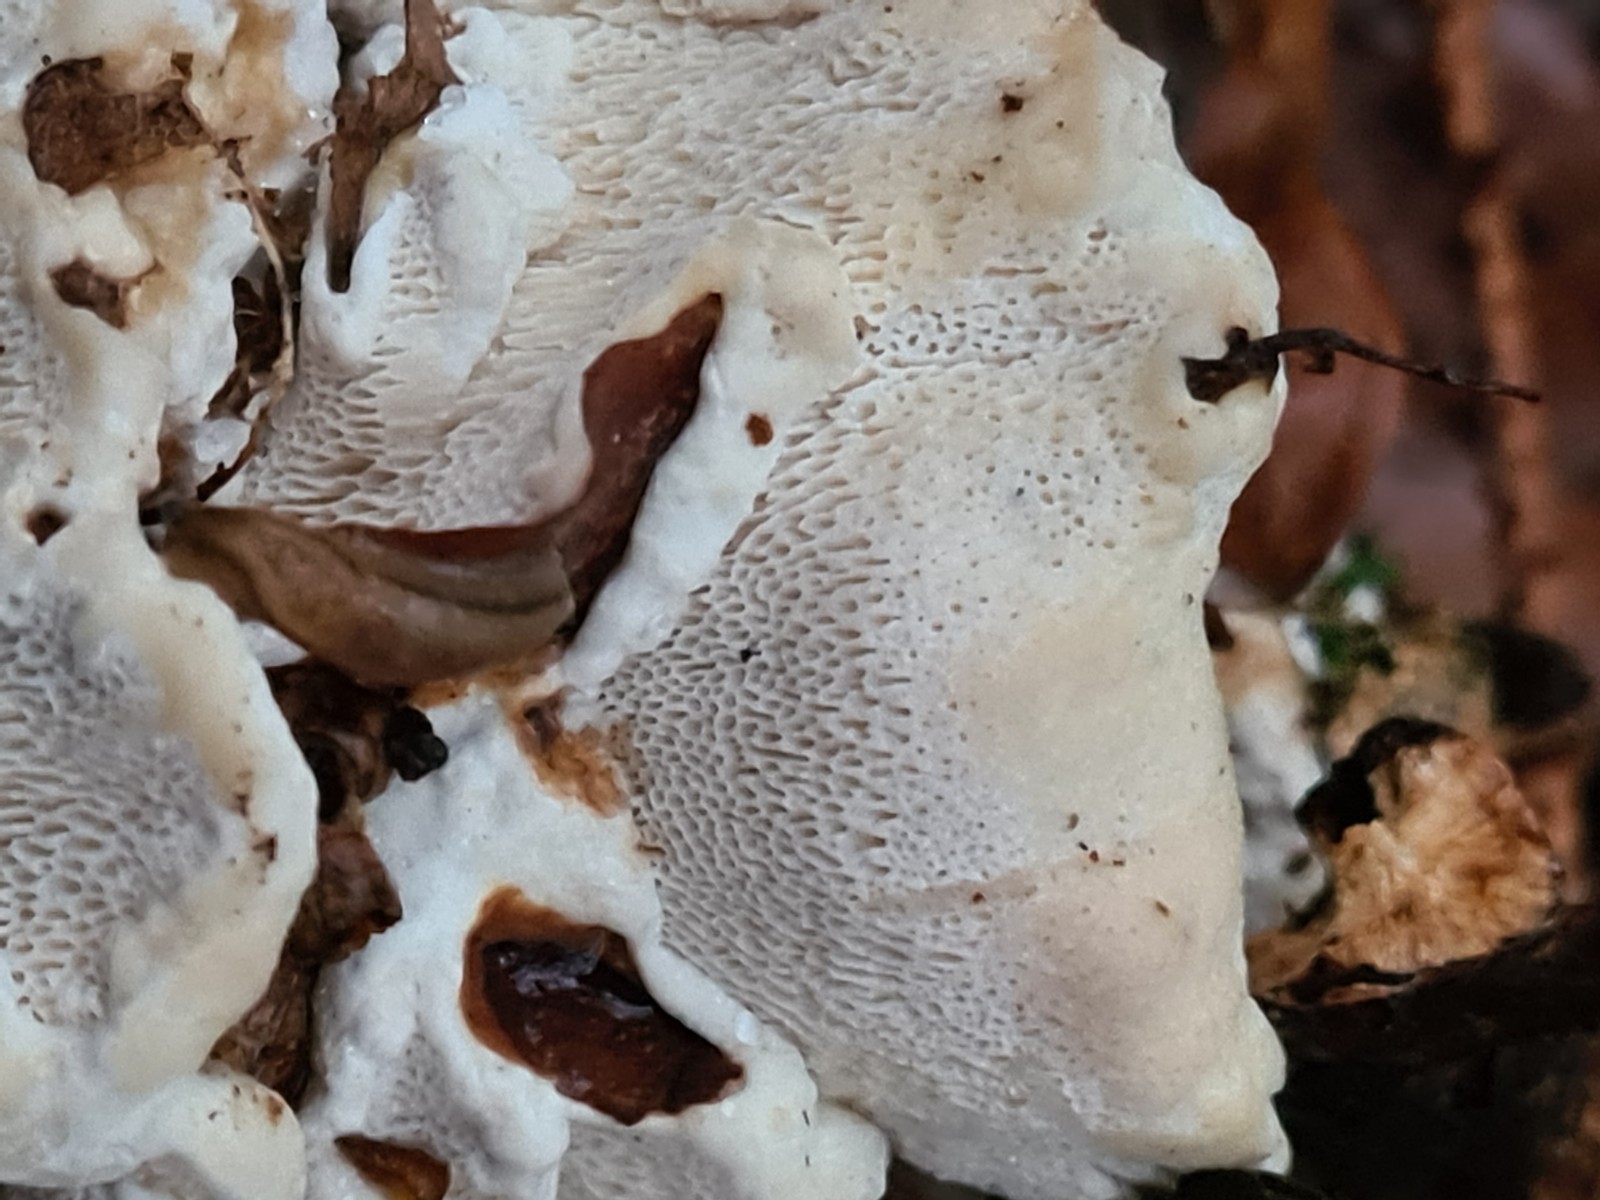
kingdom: Fungi
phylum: Basidiomycota
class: Agaricomycetes
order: Russulales
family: Bondarzewiaceae
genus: Heterobasidion
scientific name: Heterobasidion annosum
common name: almindelig rodfordærver
